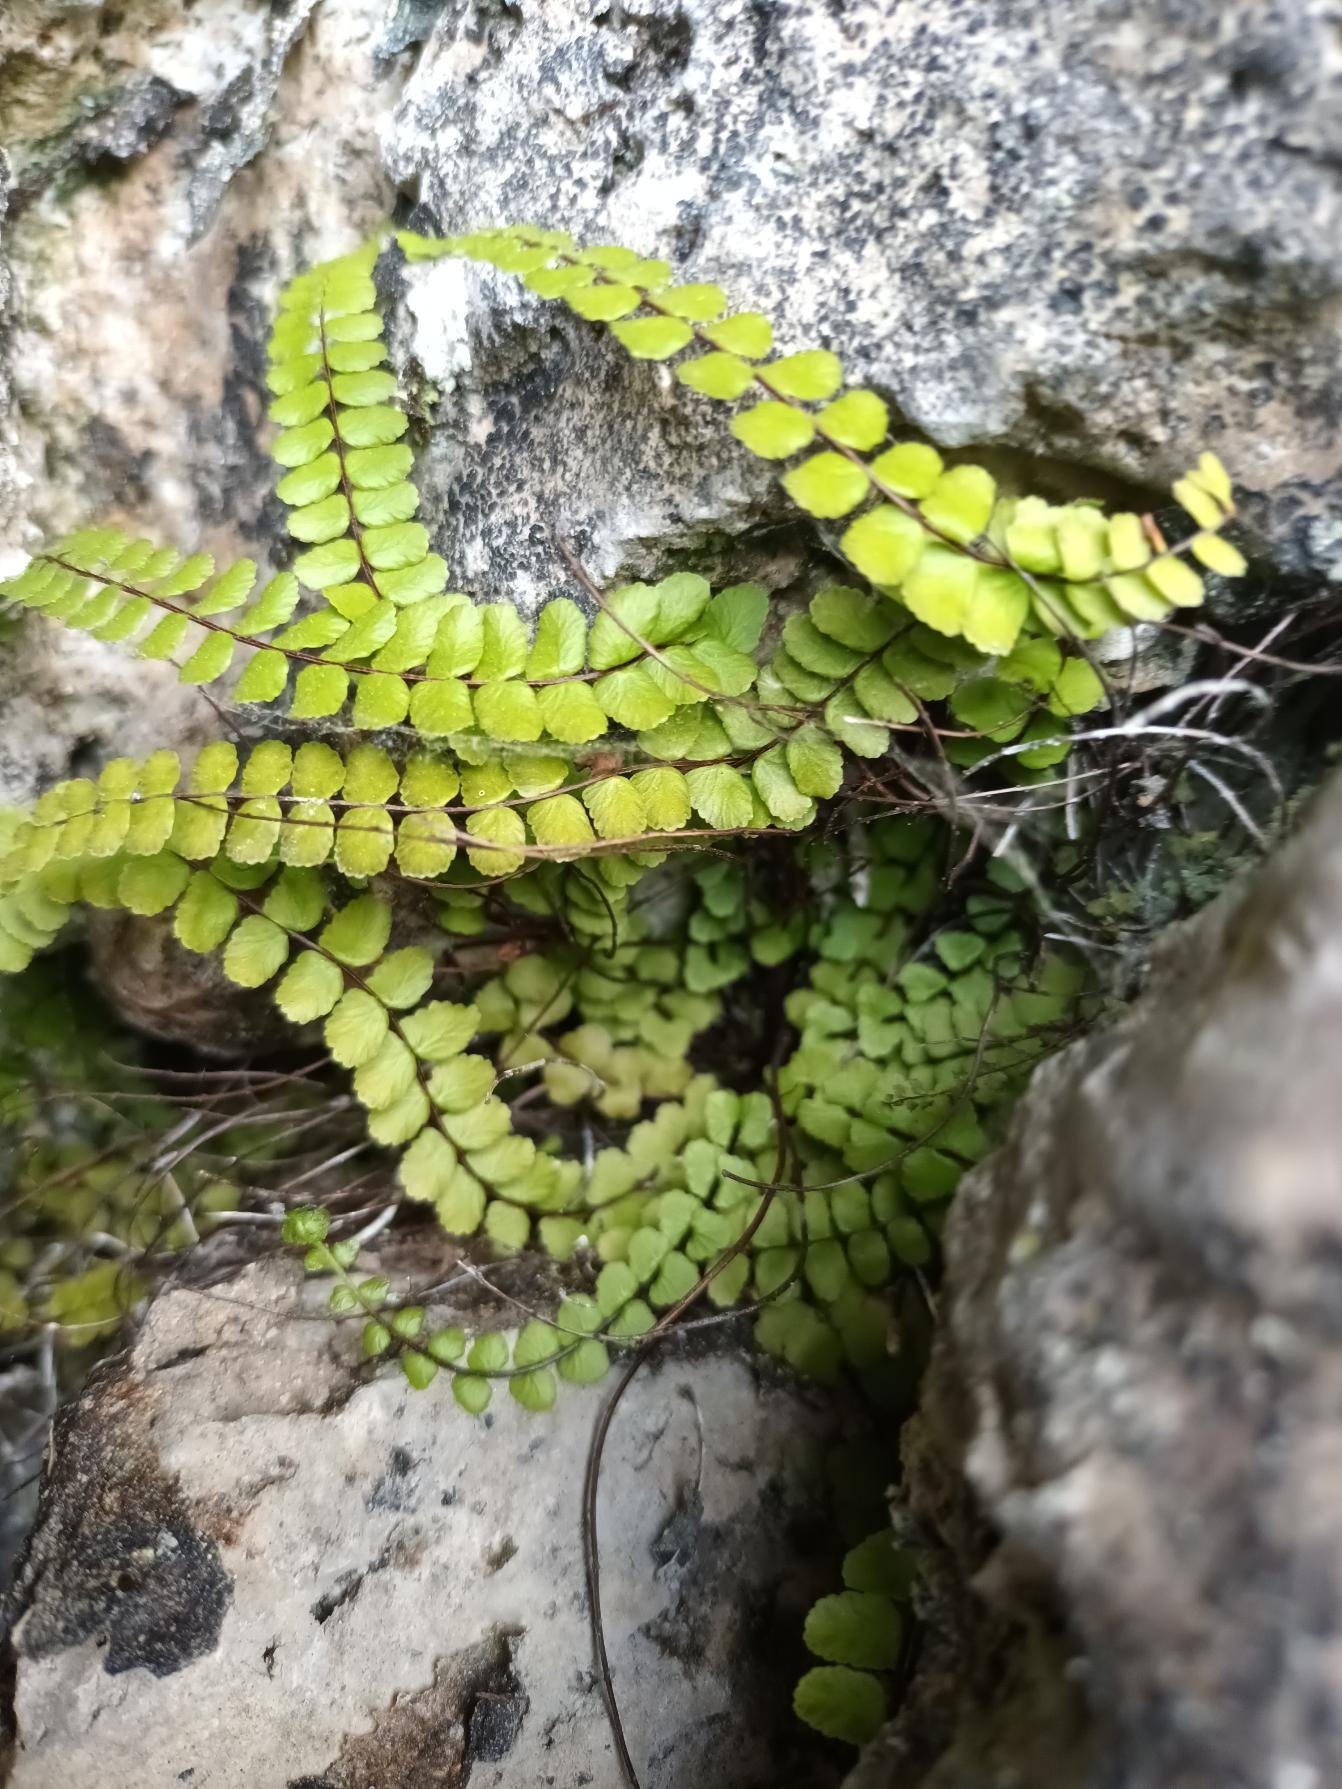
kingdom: Plantae
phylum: Tracheophyta
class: Polypodiopsida
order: Polypodiales
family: Aspleniaceae
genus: Asplenium
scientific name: Asplenium trichomanes
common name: Rundfinnet radeløv
